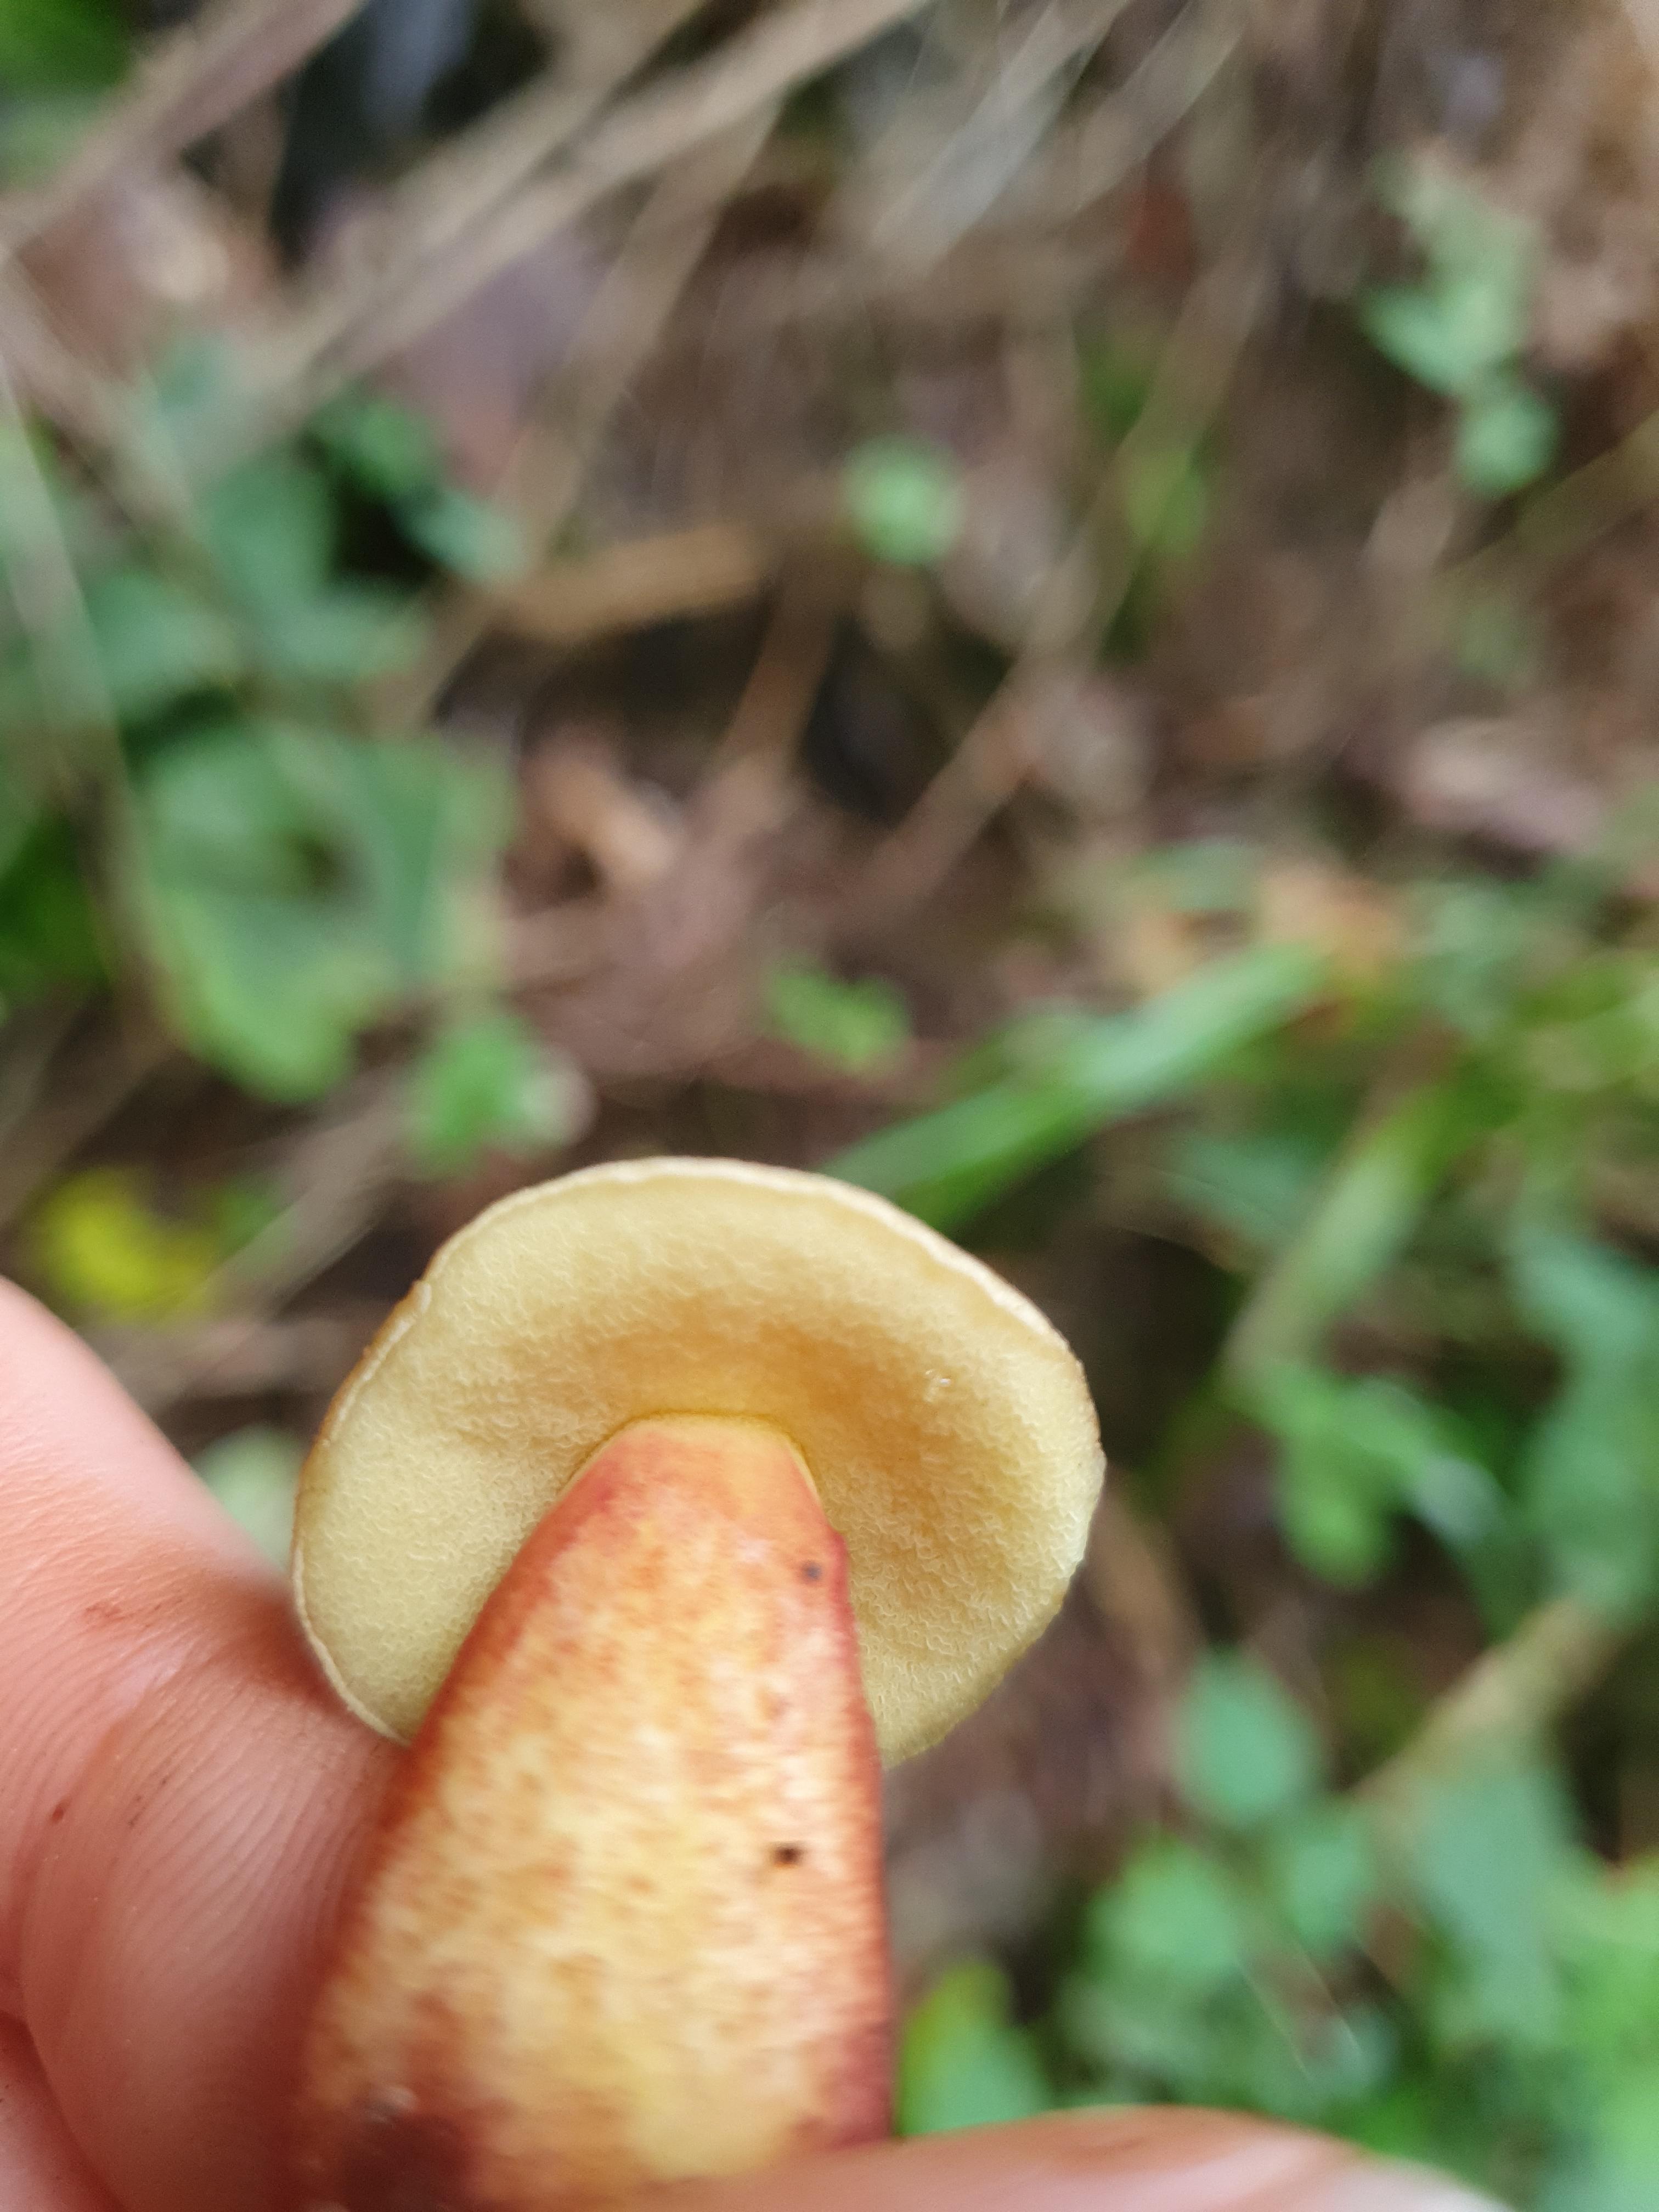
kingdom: Fungi
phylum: Basidiomycota
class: Agaricomycetes
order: Boletales
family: Boletaceae
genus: Xerocomellus
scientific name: Xerocomellus
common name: dværgrørhat
